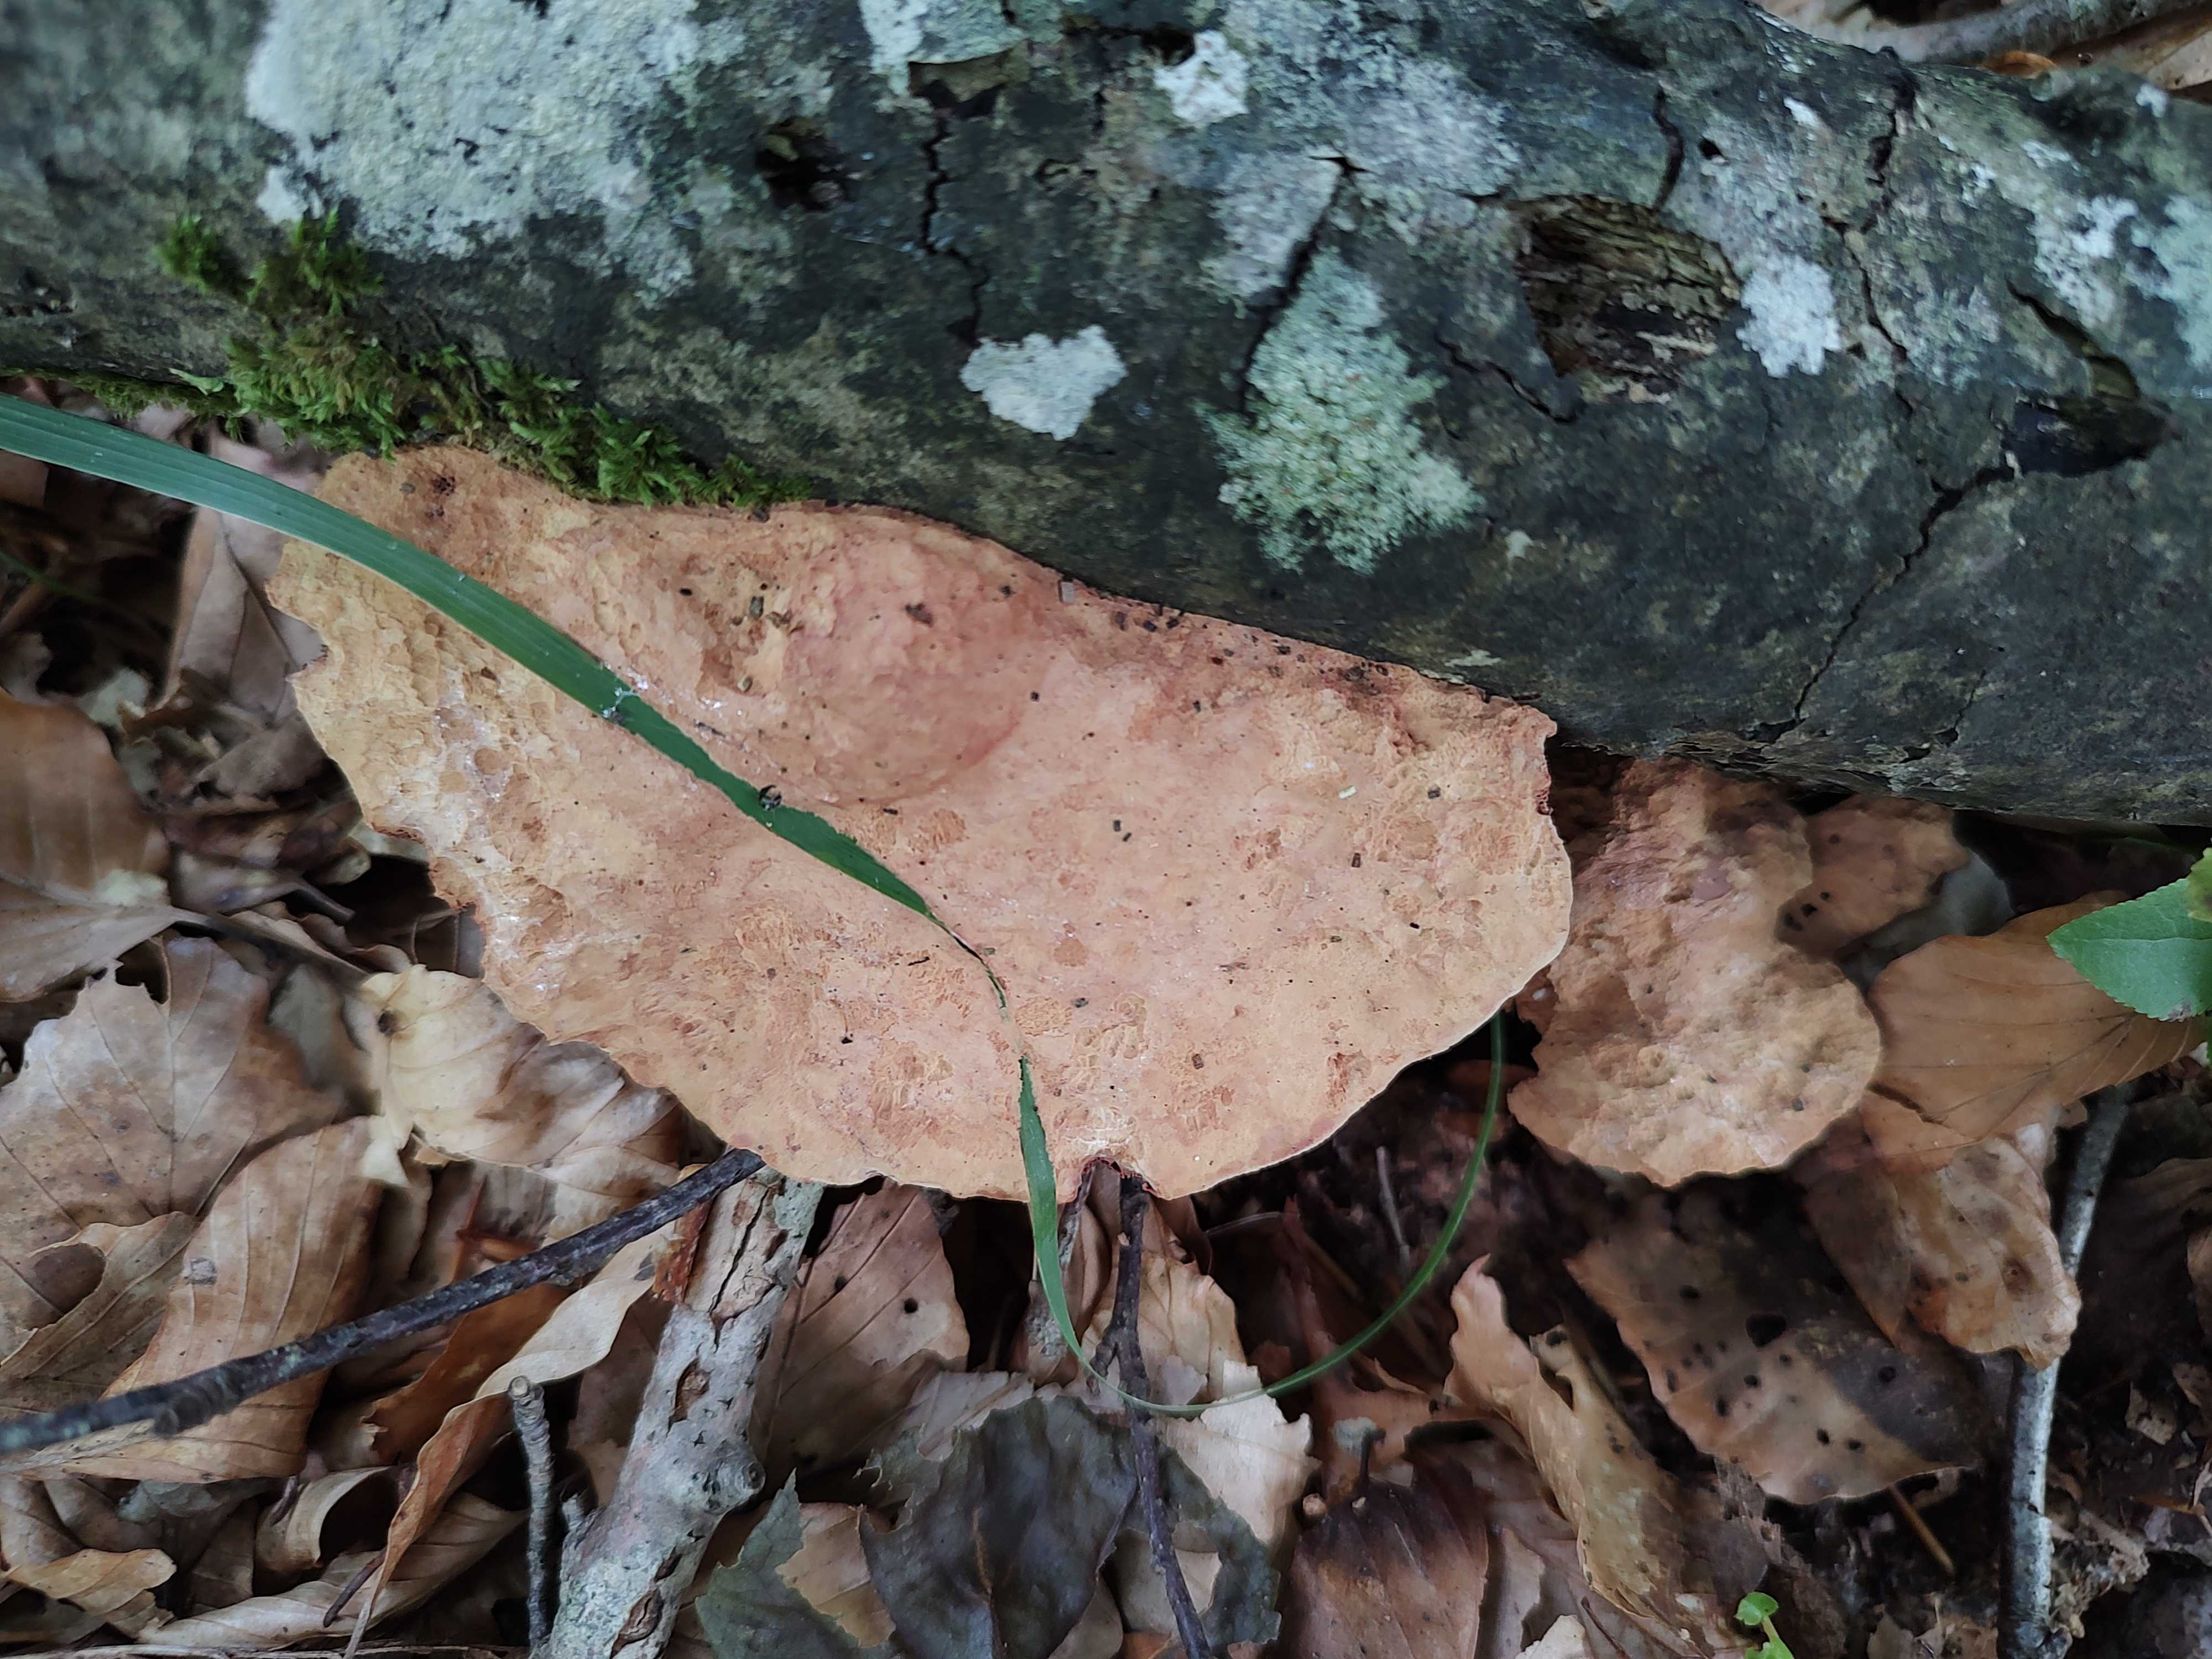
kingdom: Fungi
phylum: Basidiomycota
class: Agaricomycetes
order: Polyporales
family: Phanerochaetaceae
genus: Hapalopilus
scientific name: Hapalopilus rutilans
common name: rødlig okkerporesvamp
